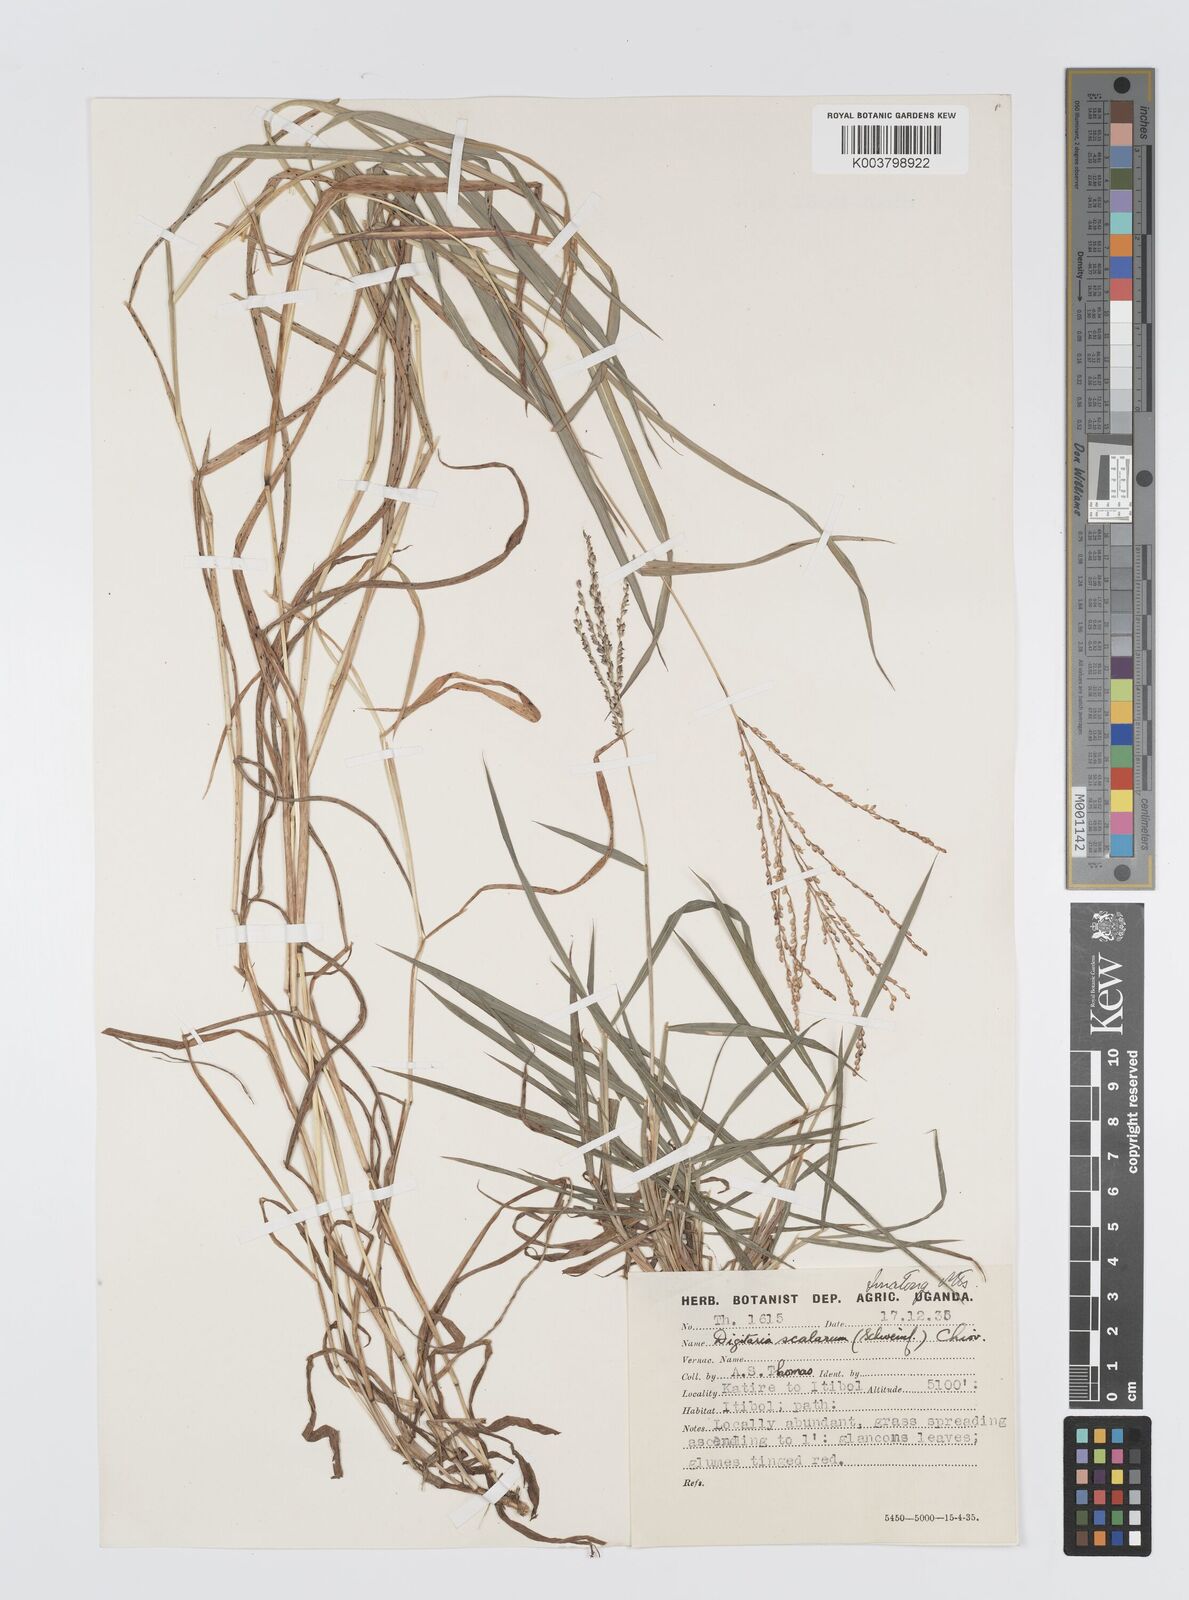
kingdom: Plantae
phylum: Tracheophyta
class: Liliopsida
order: Poales
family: Poaceae
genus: Digitaria
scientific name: Digitaria abyssinica
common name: African couchgrass
